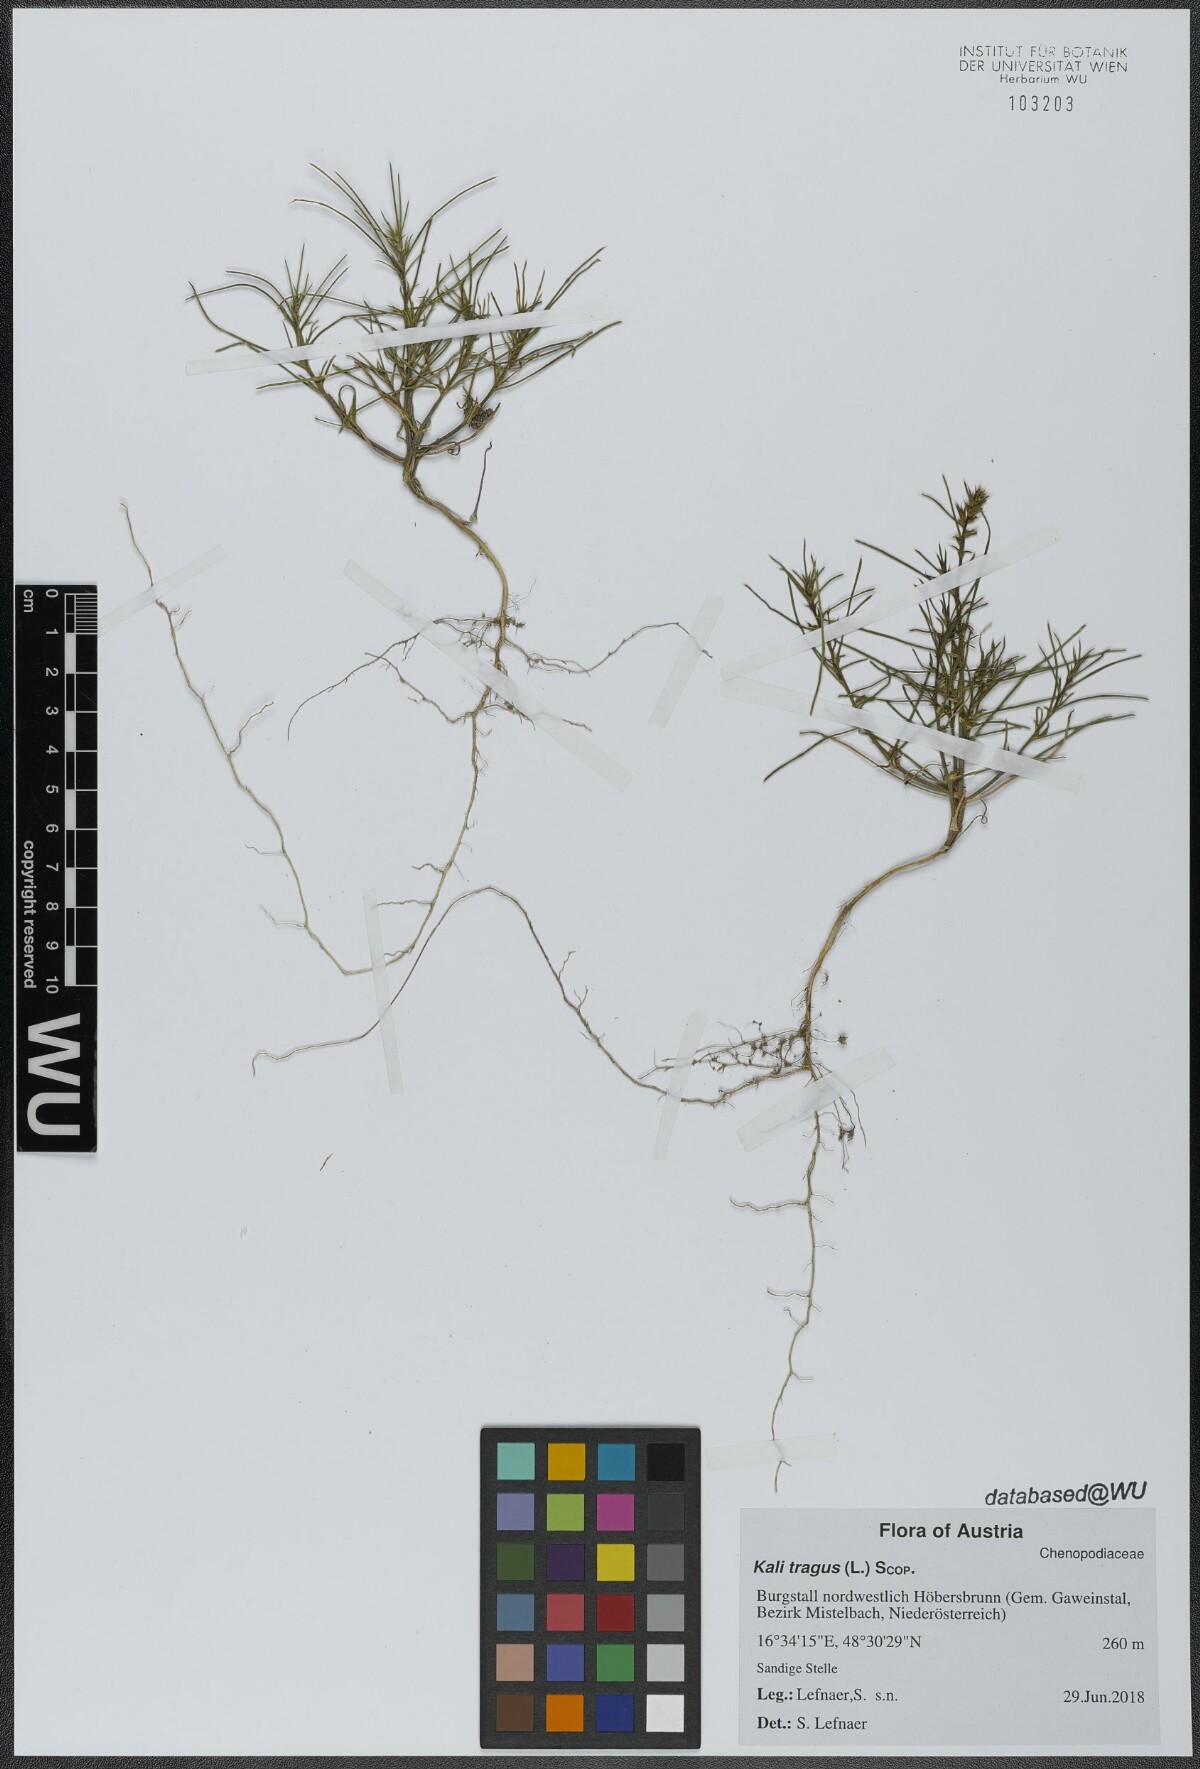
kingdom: Plantae
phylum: Tracheophyta
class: Magnoliopsida
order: Caryophyllales
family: Amaranthaceae
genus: Salsola
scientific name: Salsola tragus
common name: Prickly russian thistle
